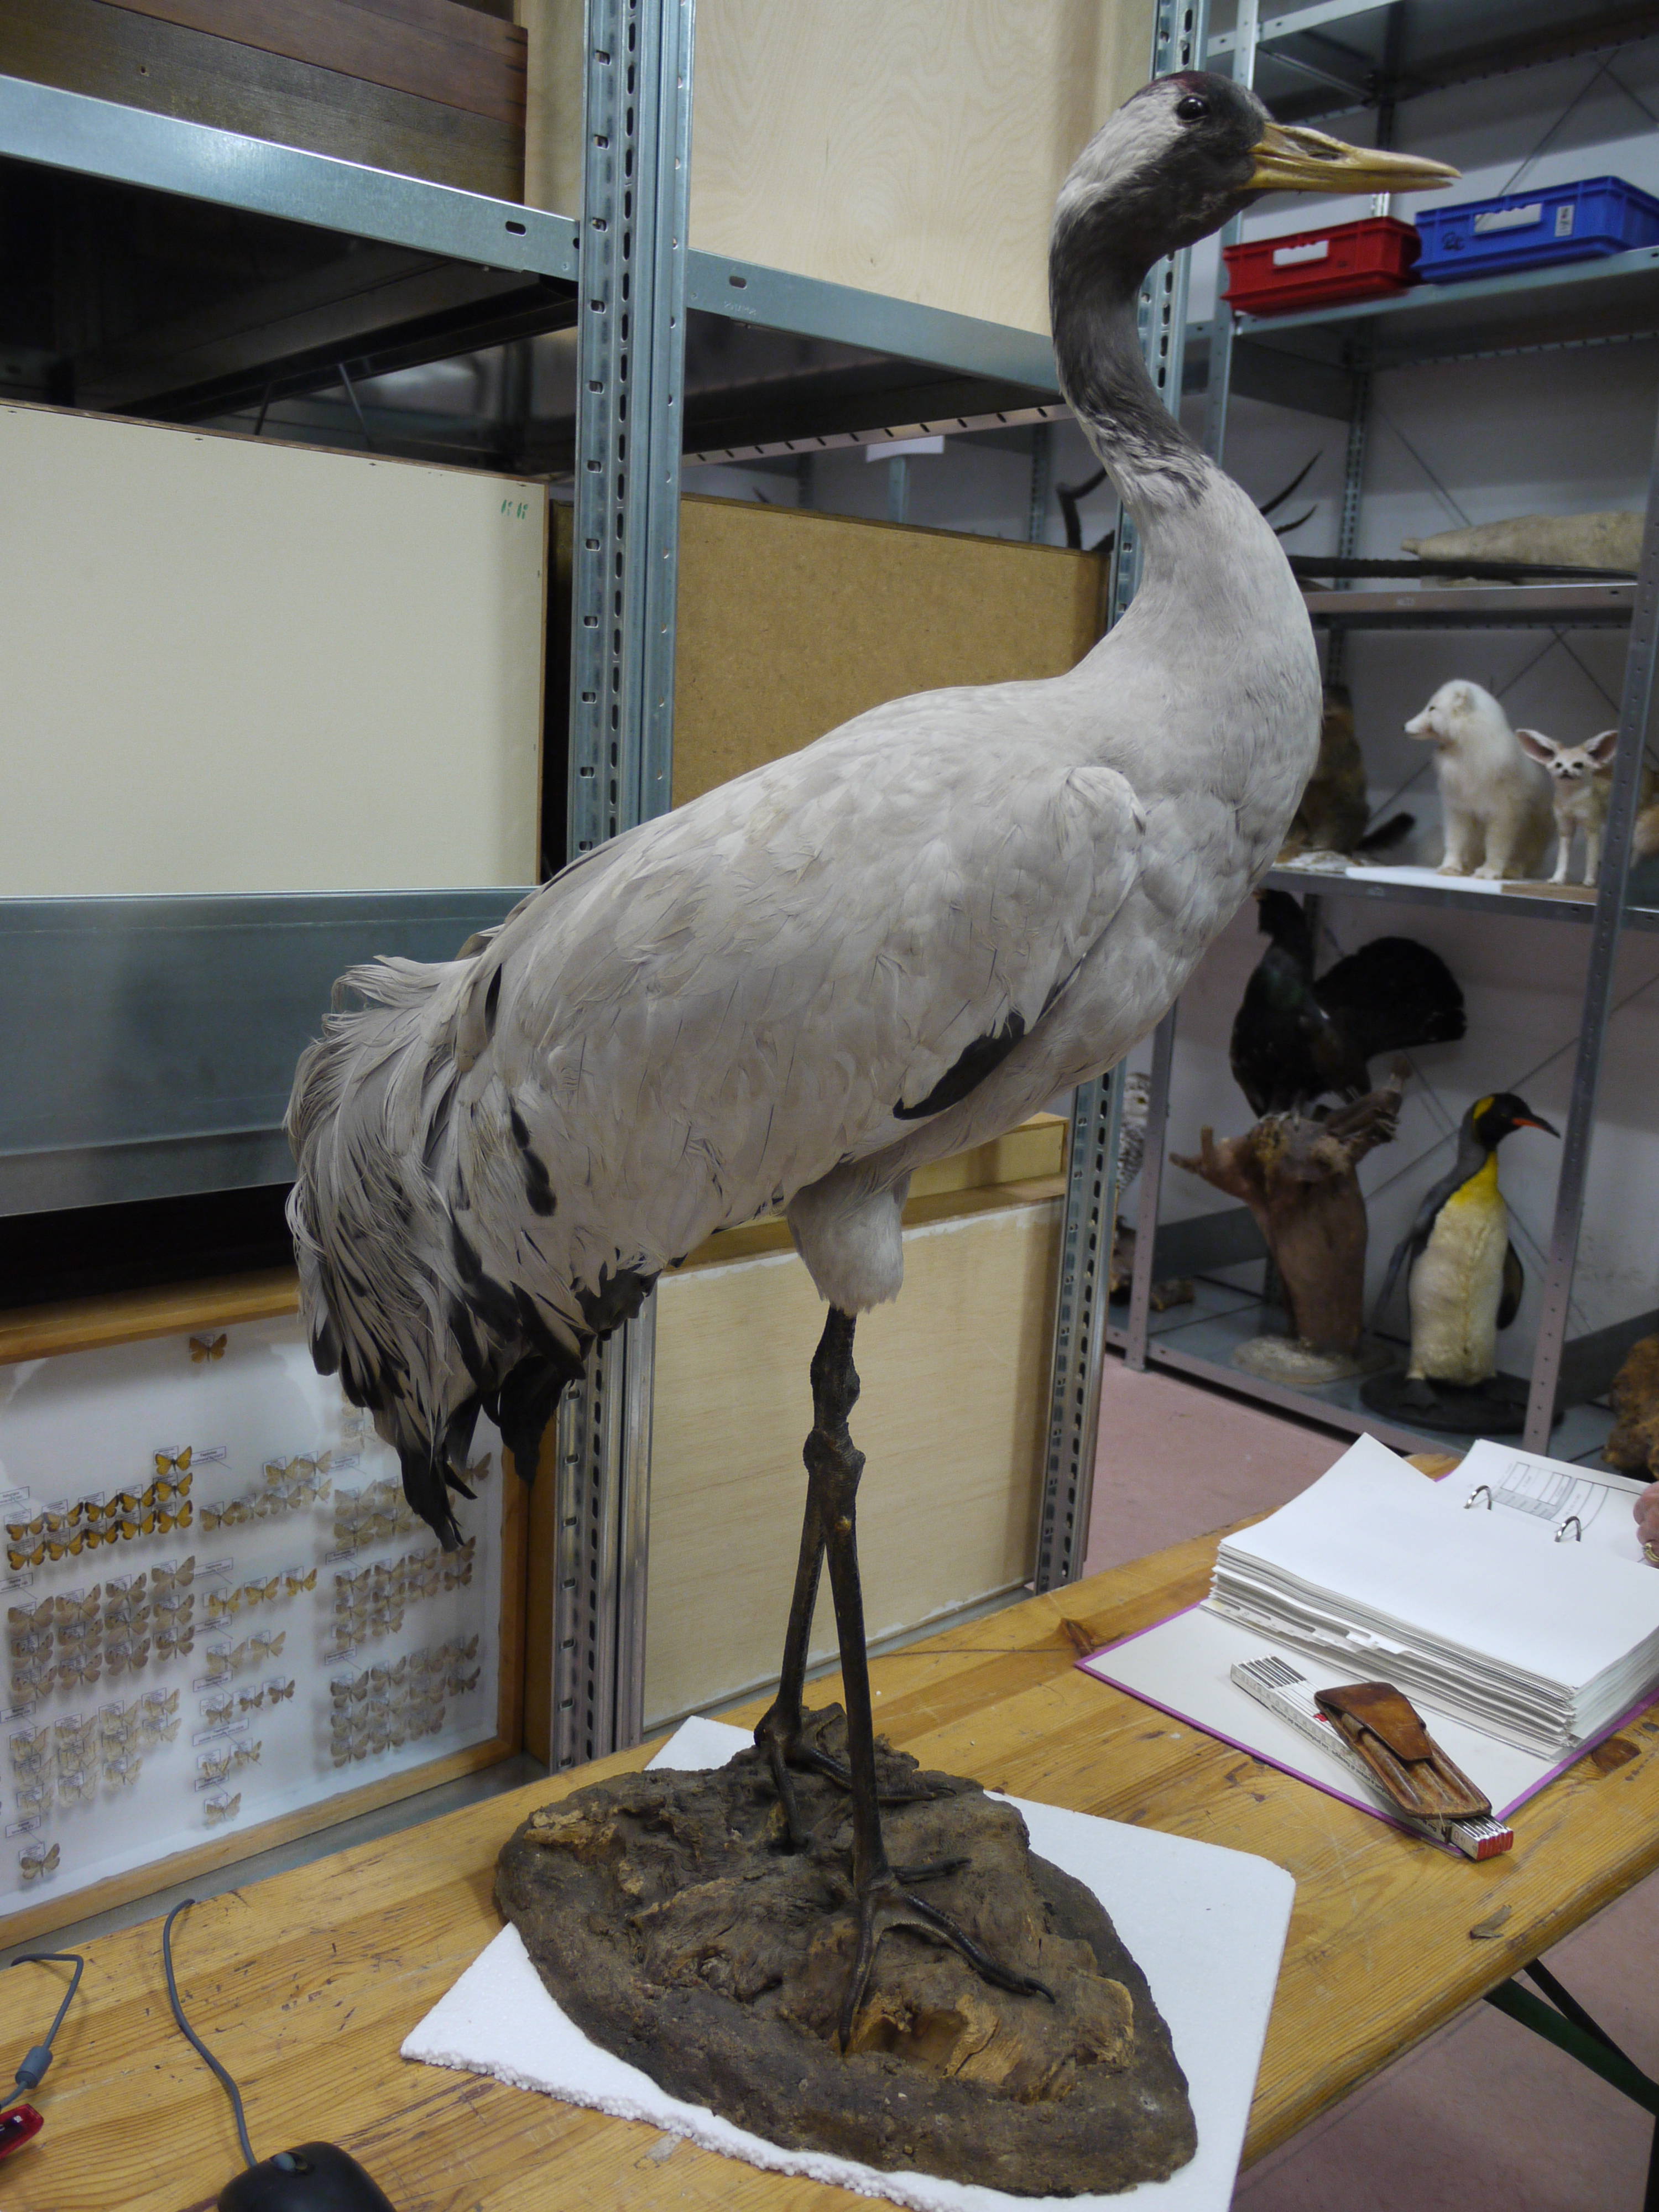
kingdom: Animalia
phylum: Chordata
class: Aves
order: Gruiformes
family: Gruidae
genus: Grus
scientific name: Grus grus
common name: Common crane
